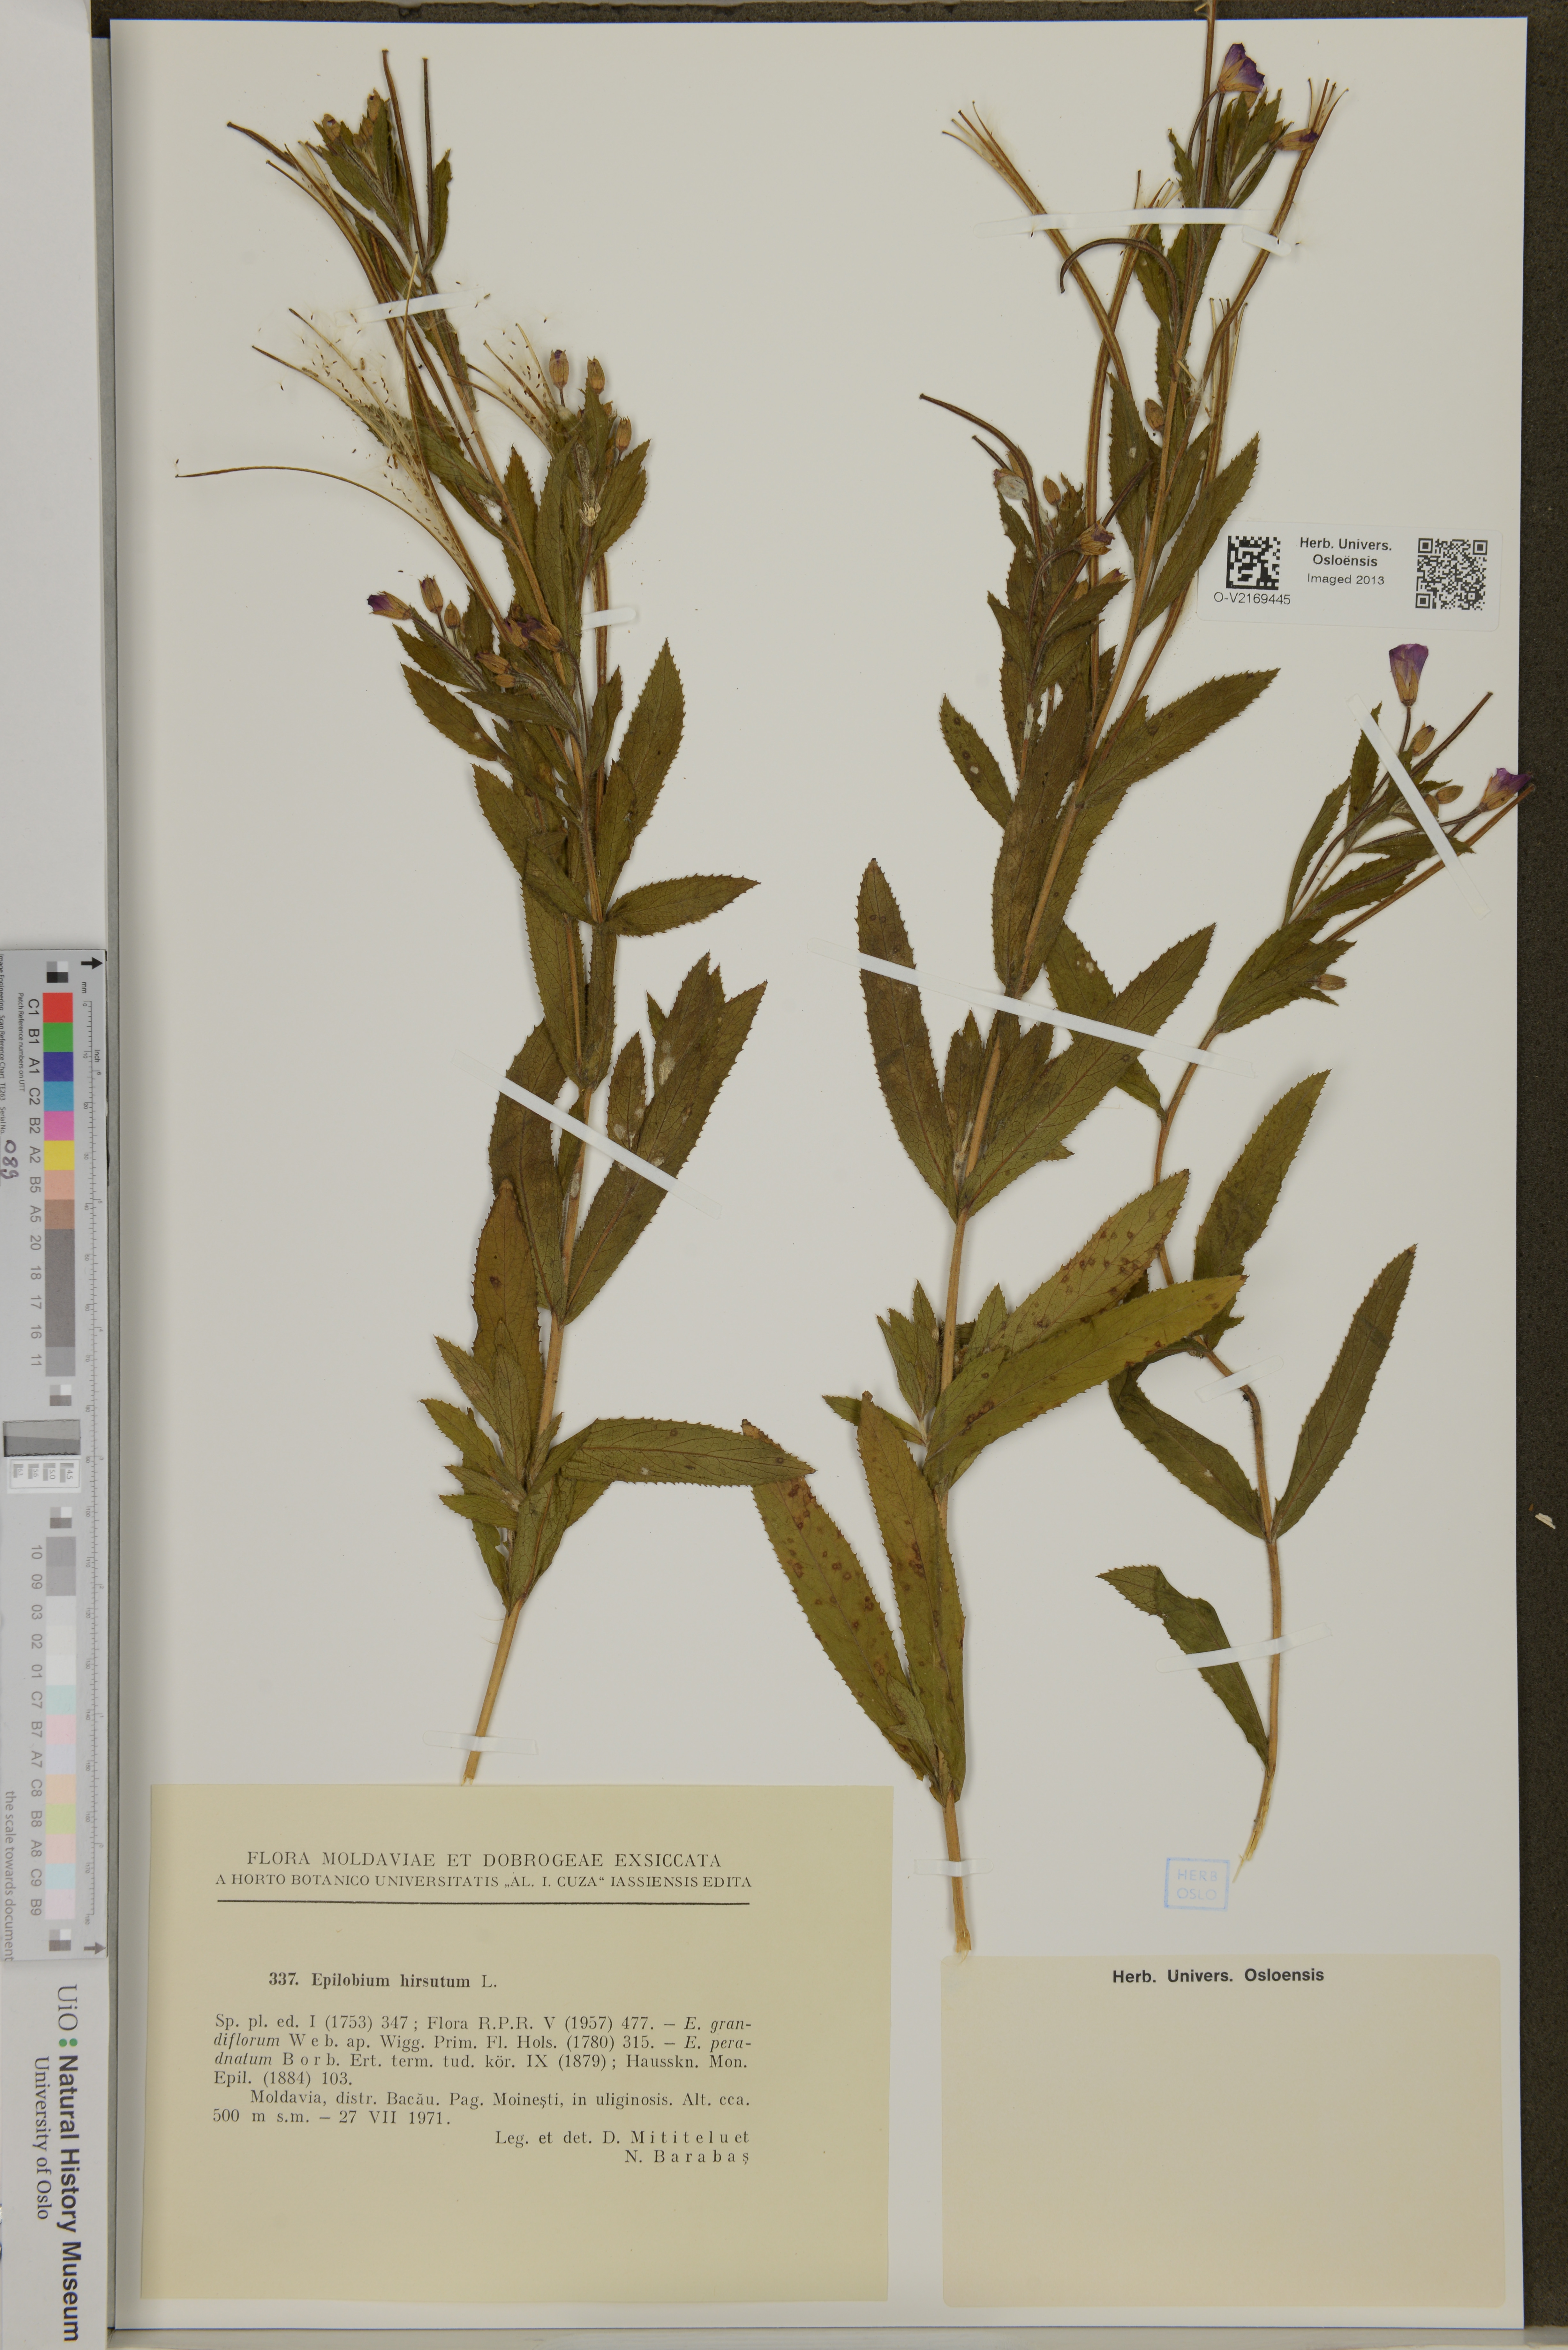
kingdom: Plantae
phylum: Tracheophyta
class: Magnoliopsida
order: Myrtales
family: Onagraceae
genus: Epilobium
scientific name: Epilobium hirsutum
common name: Great willowherb
